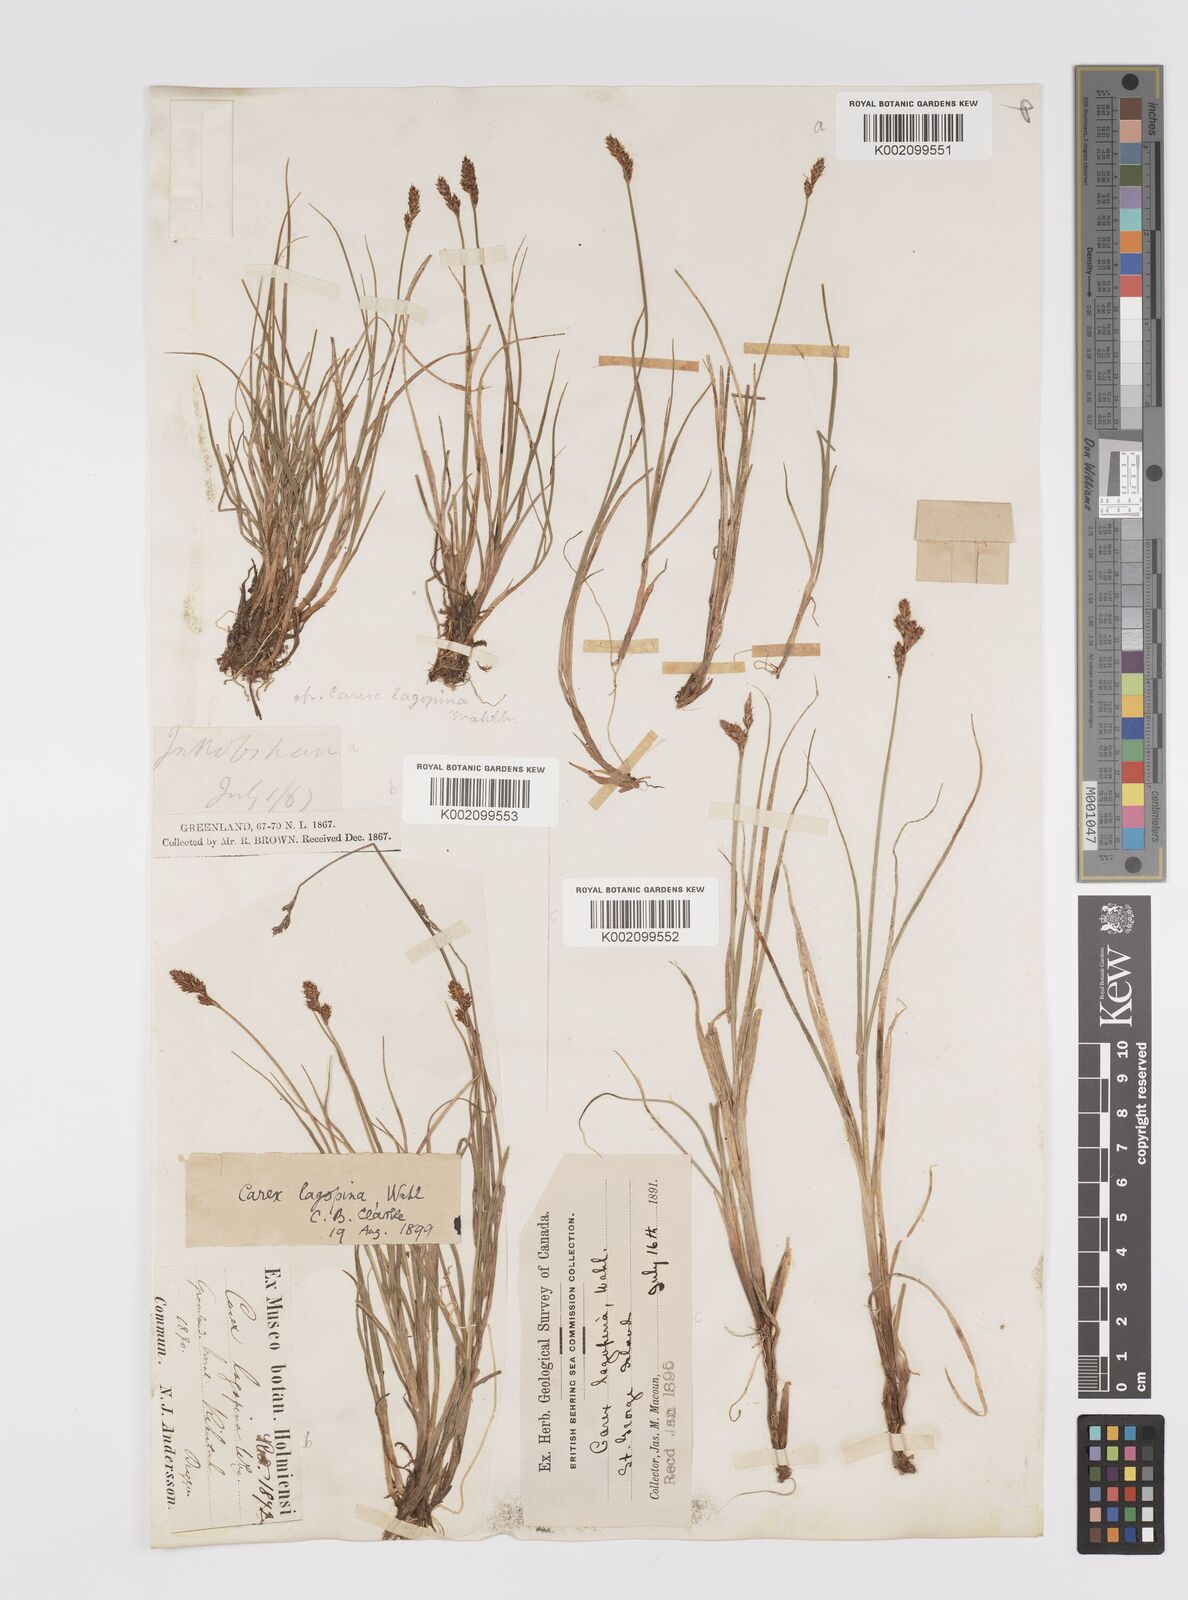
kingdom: Plantae
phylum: Tracheophyta
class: Liliopsida
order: Poales
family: Cyperaceae
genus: Carex
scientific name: Carex lachenalii
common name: Hare's-foot sedge
